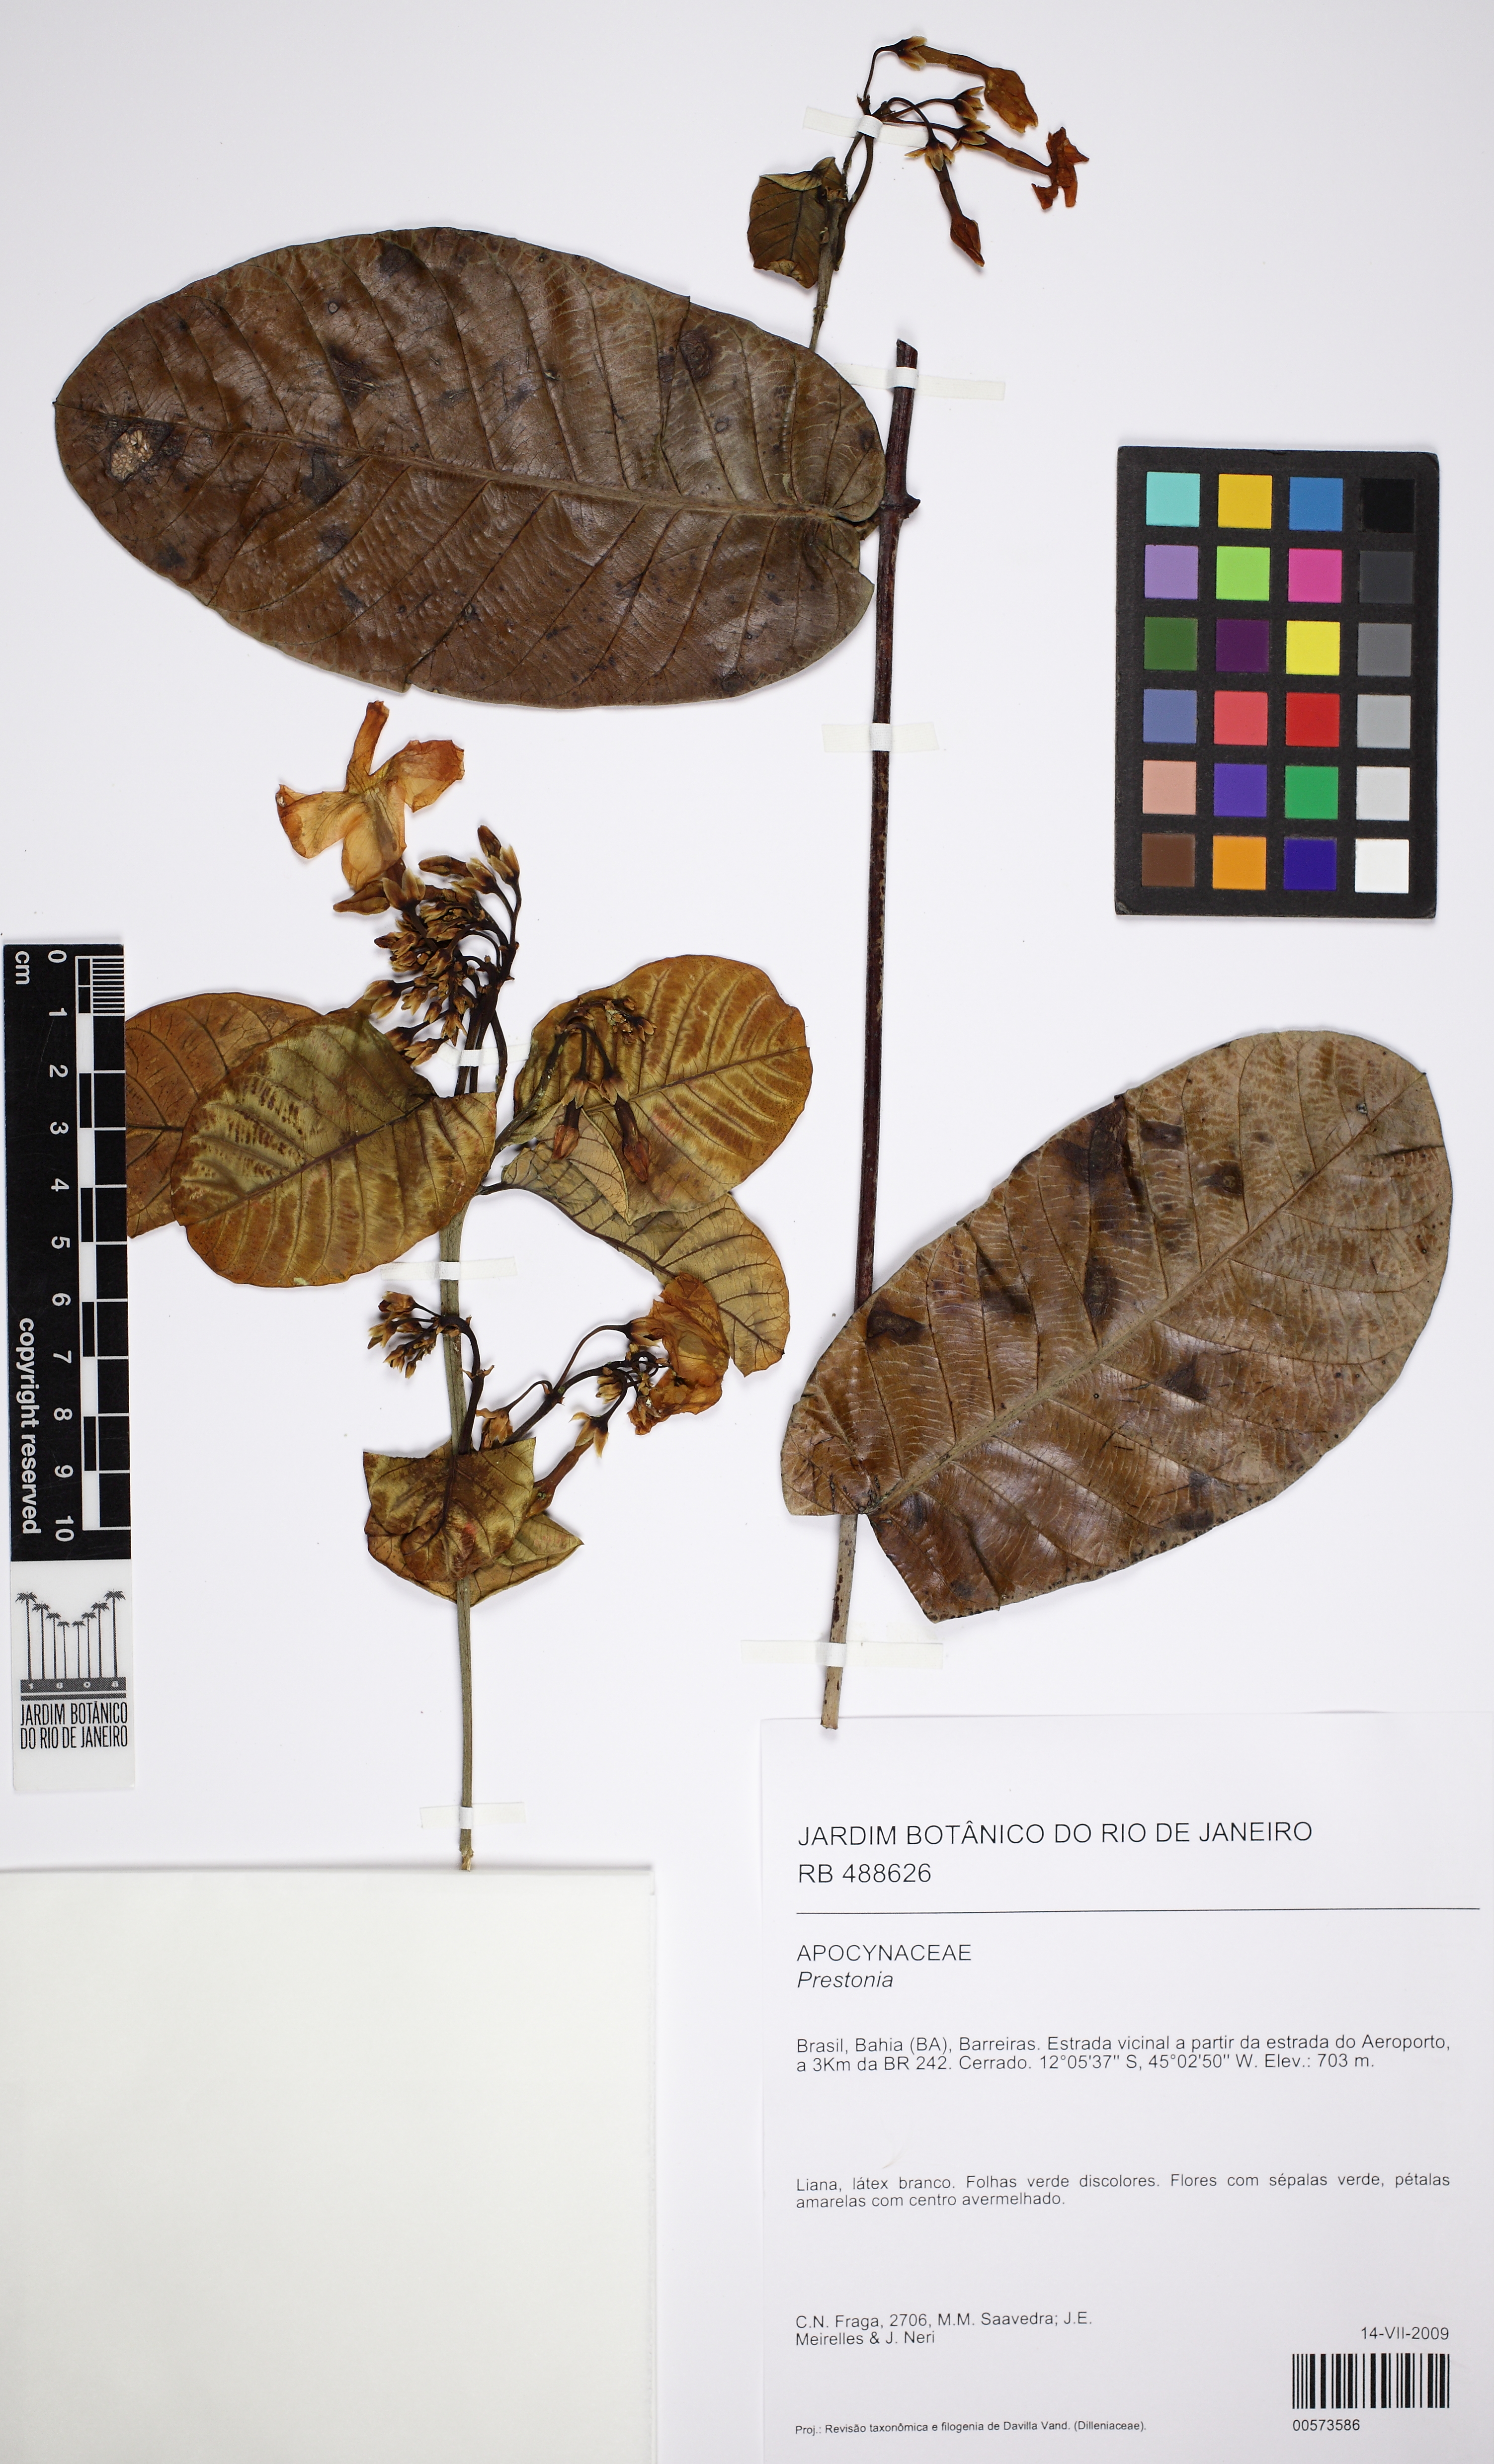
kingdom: Plantae
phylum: Tracheophyta
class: Magnoliopsida
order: Gentianales
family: Apocynaceae
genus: Prestonia
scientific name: Prestonia
